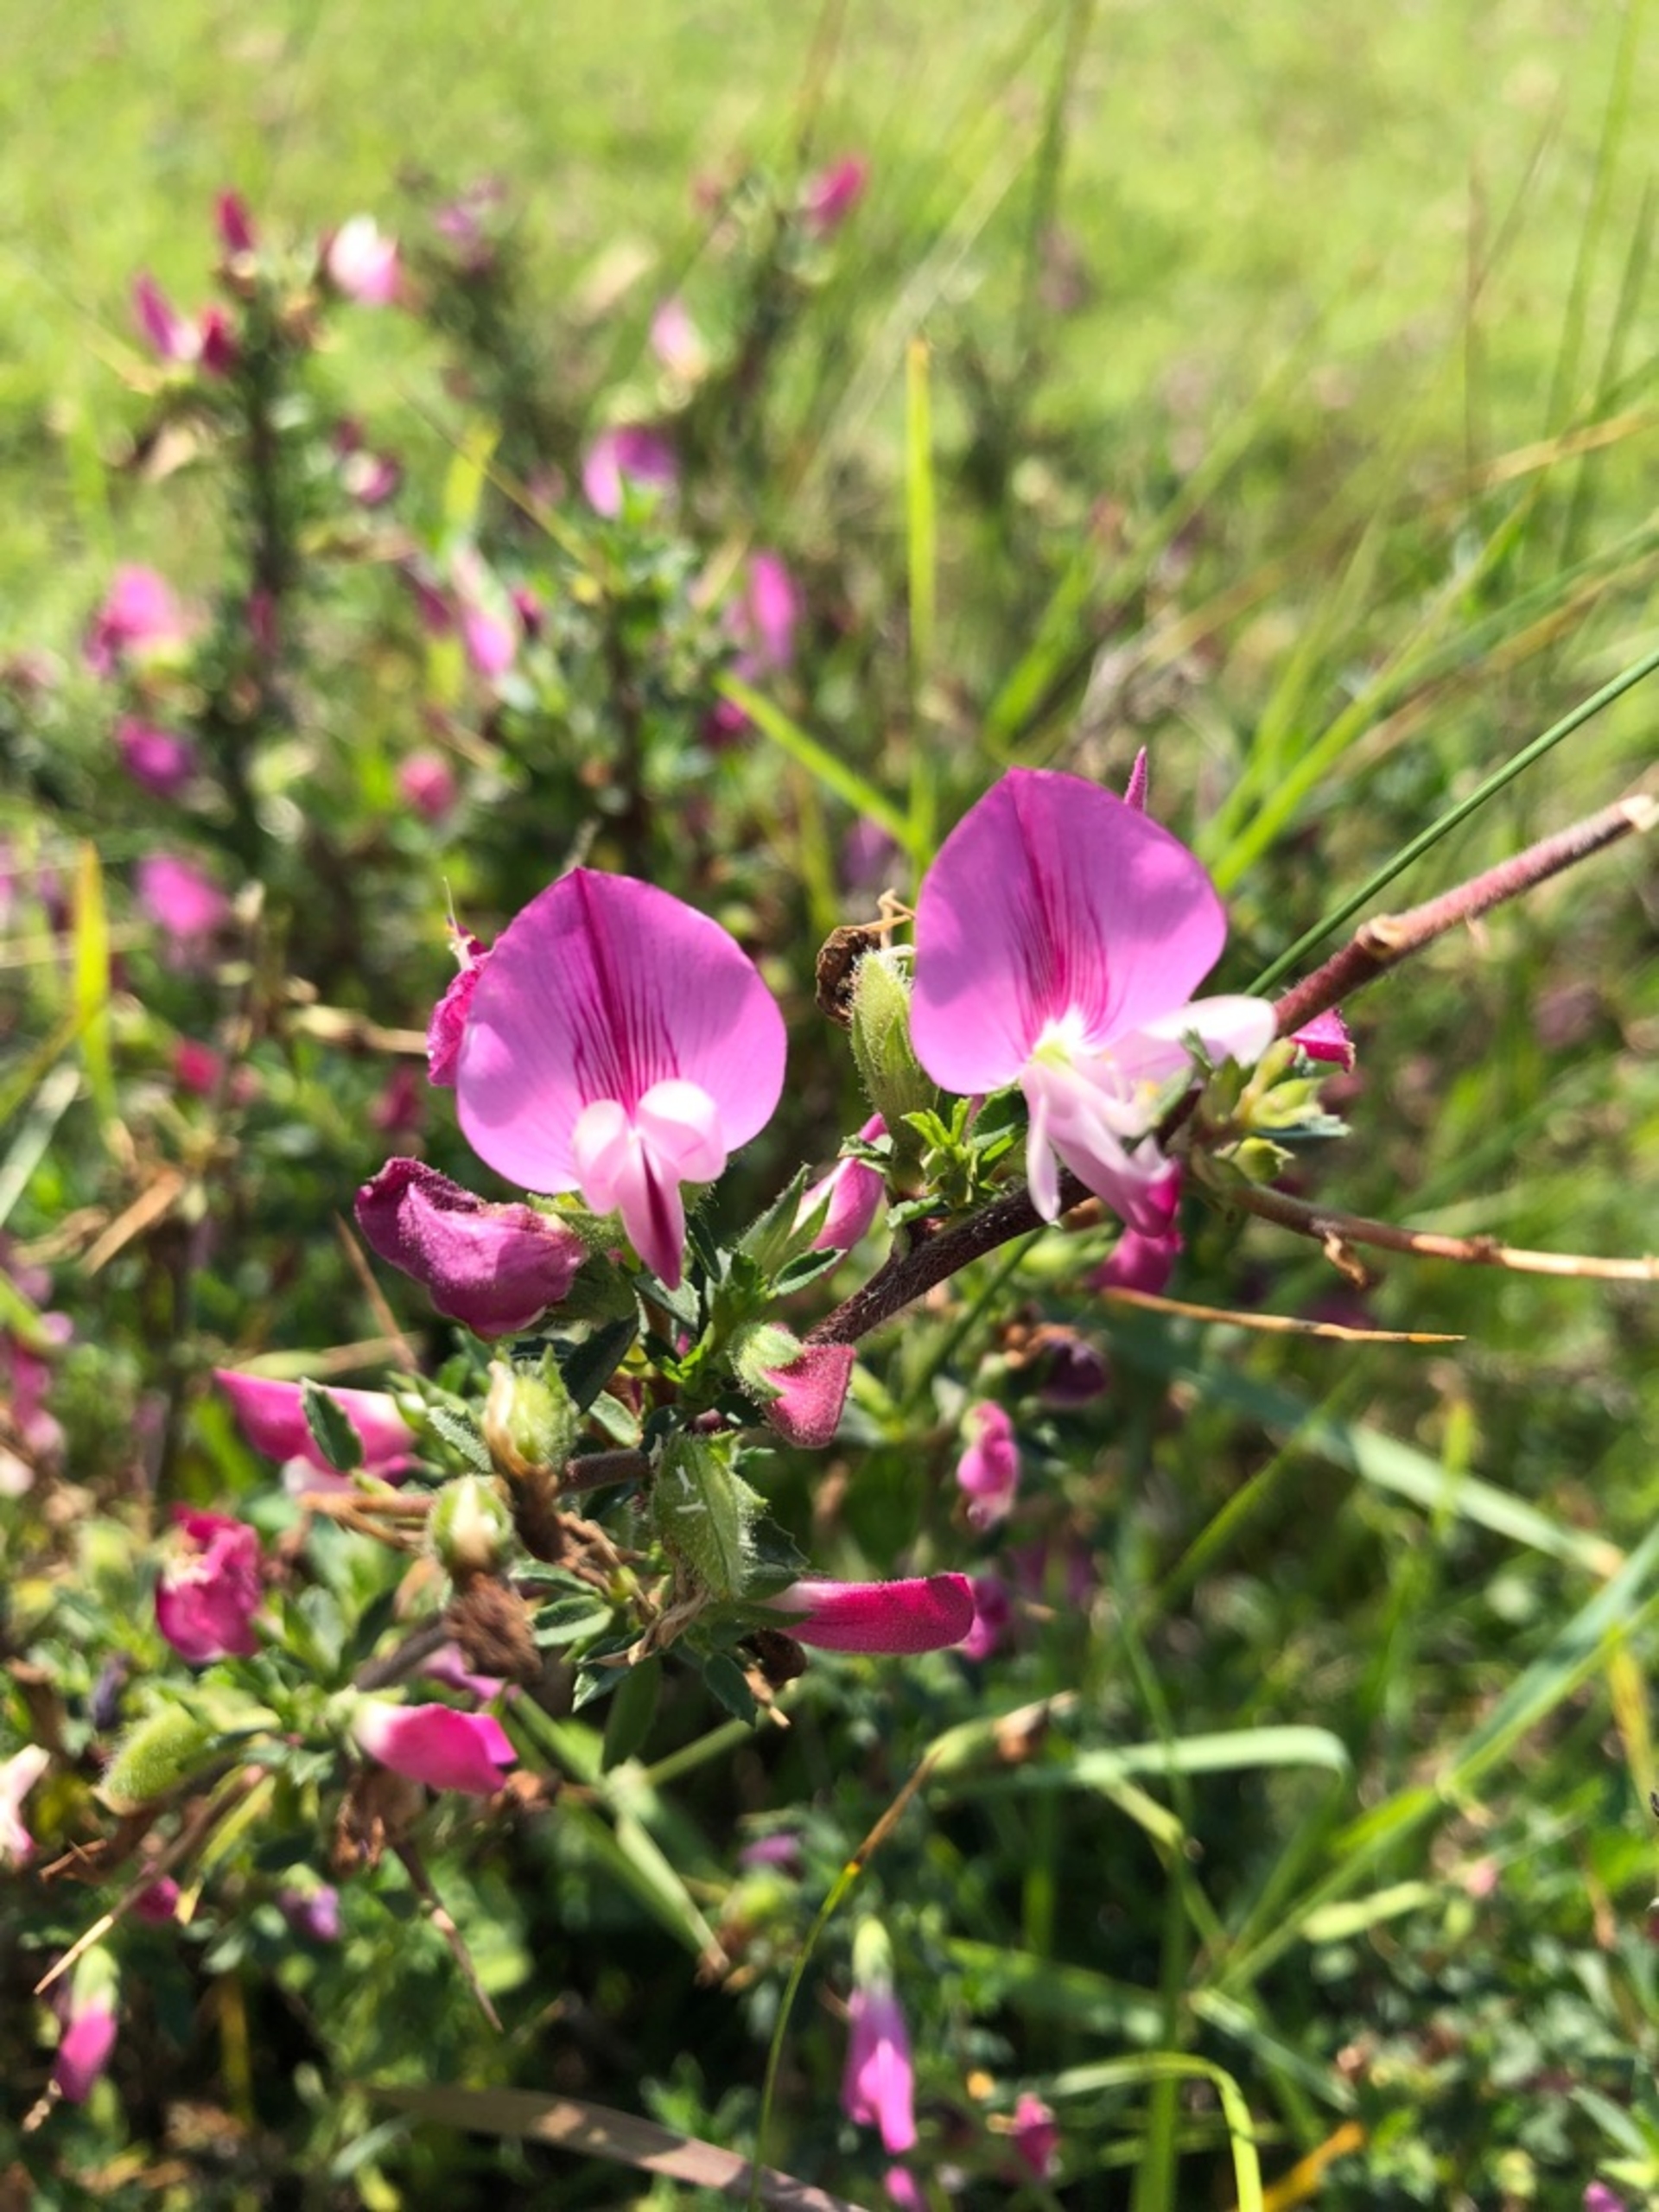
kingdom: Plantae
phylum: Tracheophyta
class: Magnoliopsida
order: Fabales
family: Fabaceae
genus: Ononis
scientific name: Ononis spinosa
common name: Mark-krageklo
